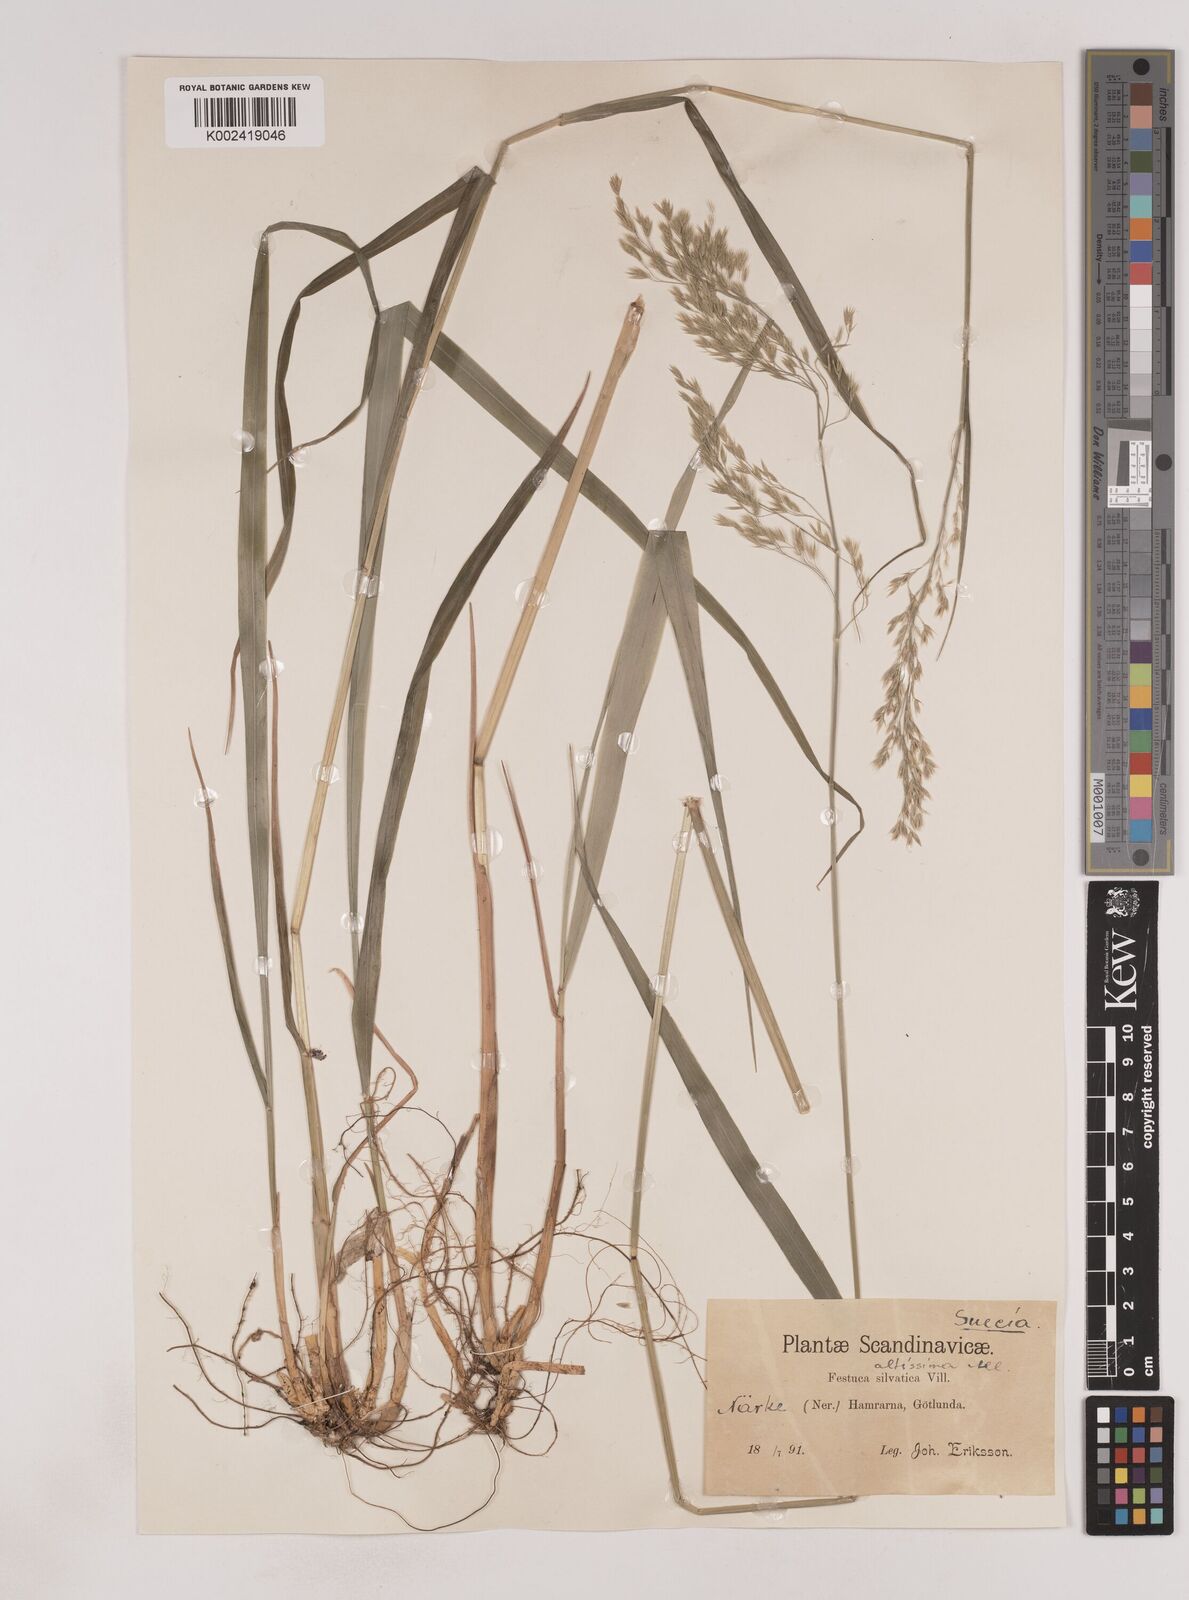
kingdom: Plantae
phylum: Tracheophyta
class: Liliopsida
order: Poales
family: Poaceae
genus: Festuca
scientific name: Festuca drymeja
